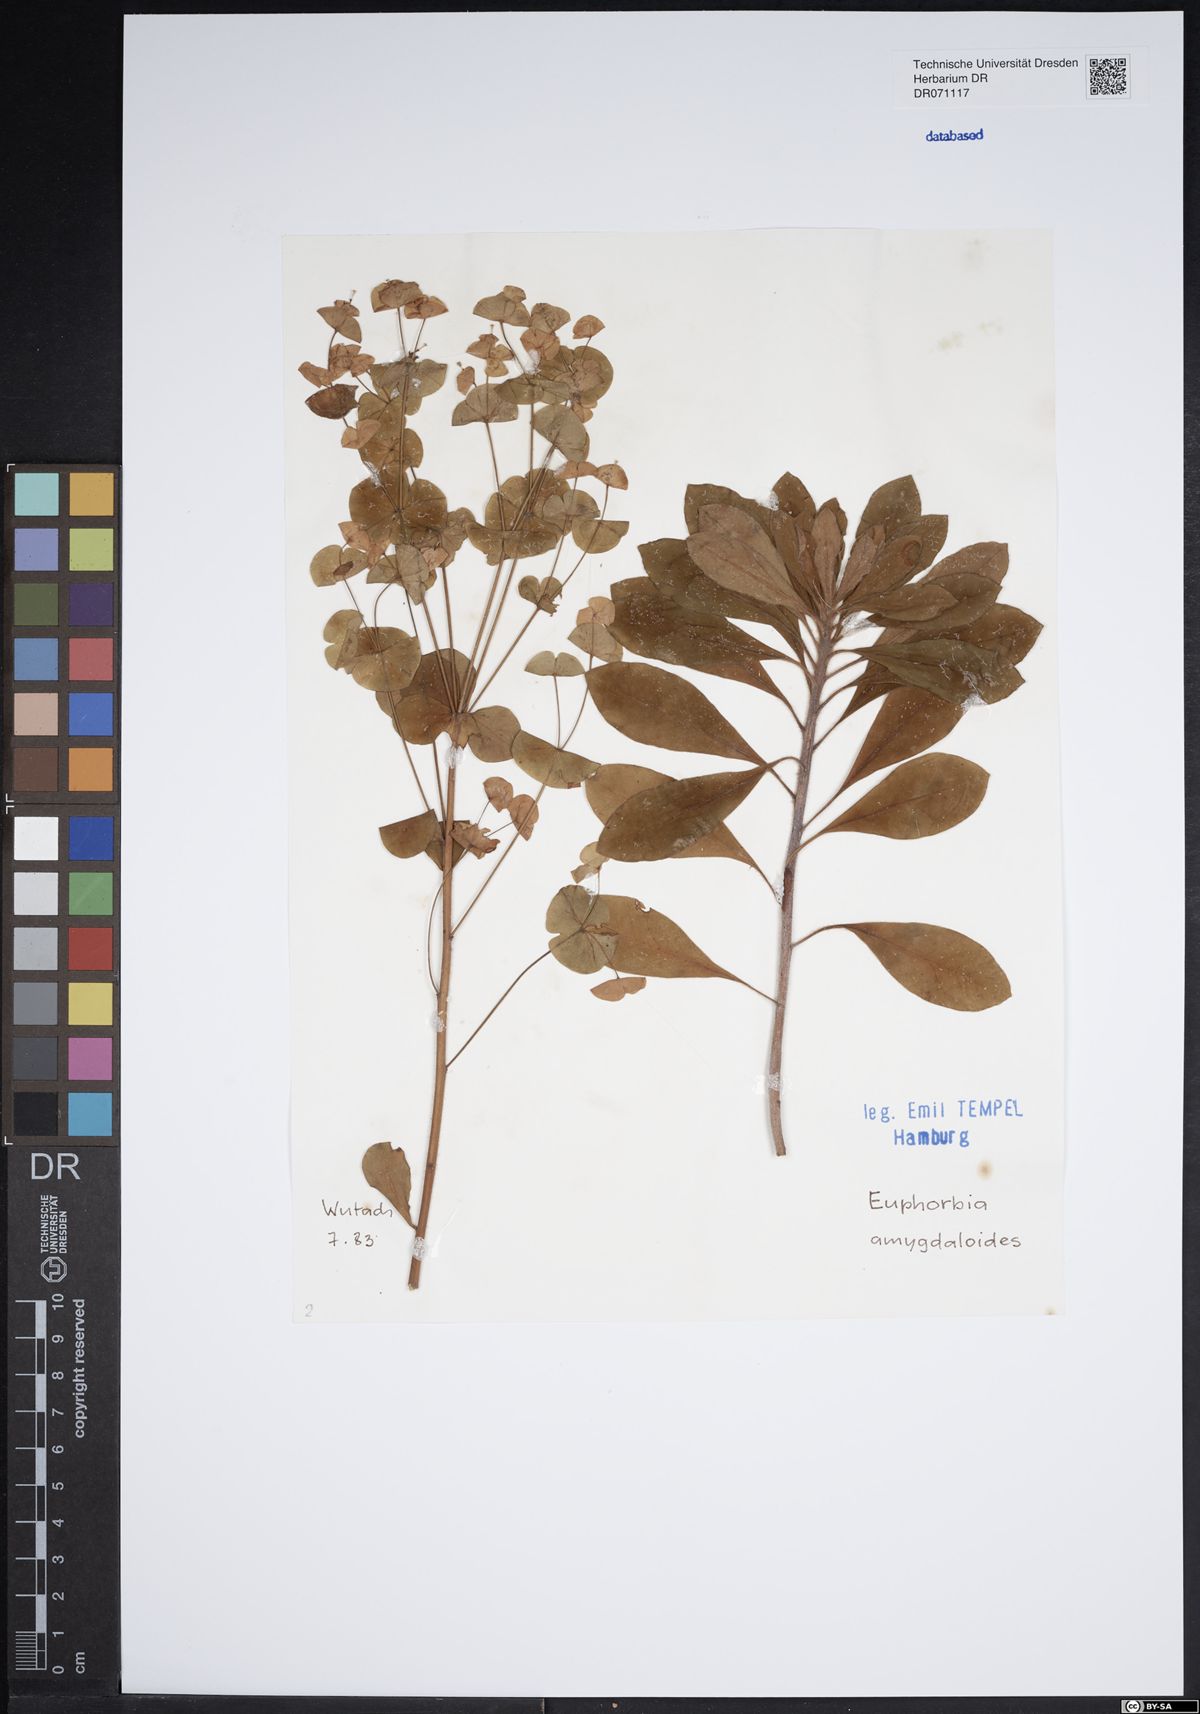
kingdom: Plantae
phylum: Tracheophyta
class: Magnoliopsida
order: Malpighiales
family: Euphorbiaceae
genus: Euphorbia
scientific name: Euphorbia amygdaloides
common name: Wood spurge
